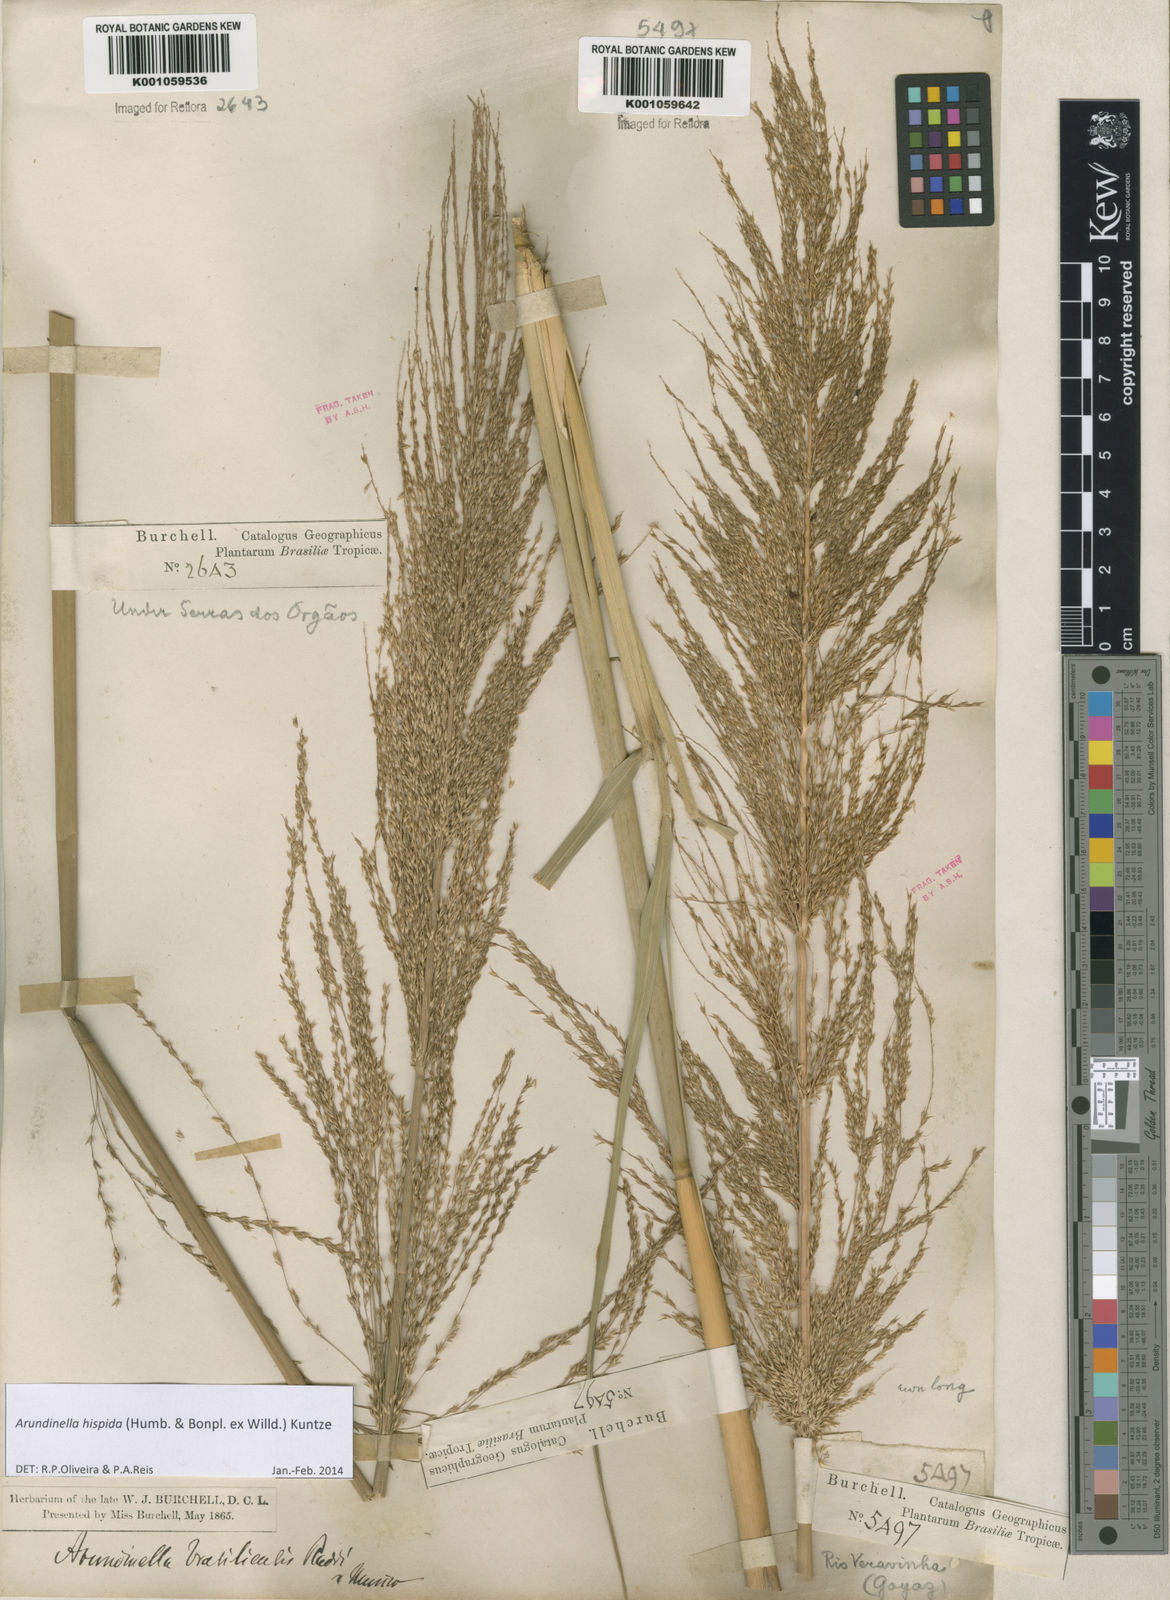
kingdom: Plantae
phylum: Tracheophyta
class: Liliopsida
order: Poales
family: Poaceae
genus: Arundinella
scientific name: Arundinella hispida
